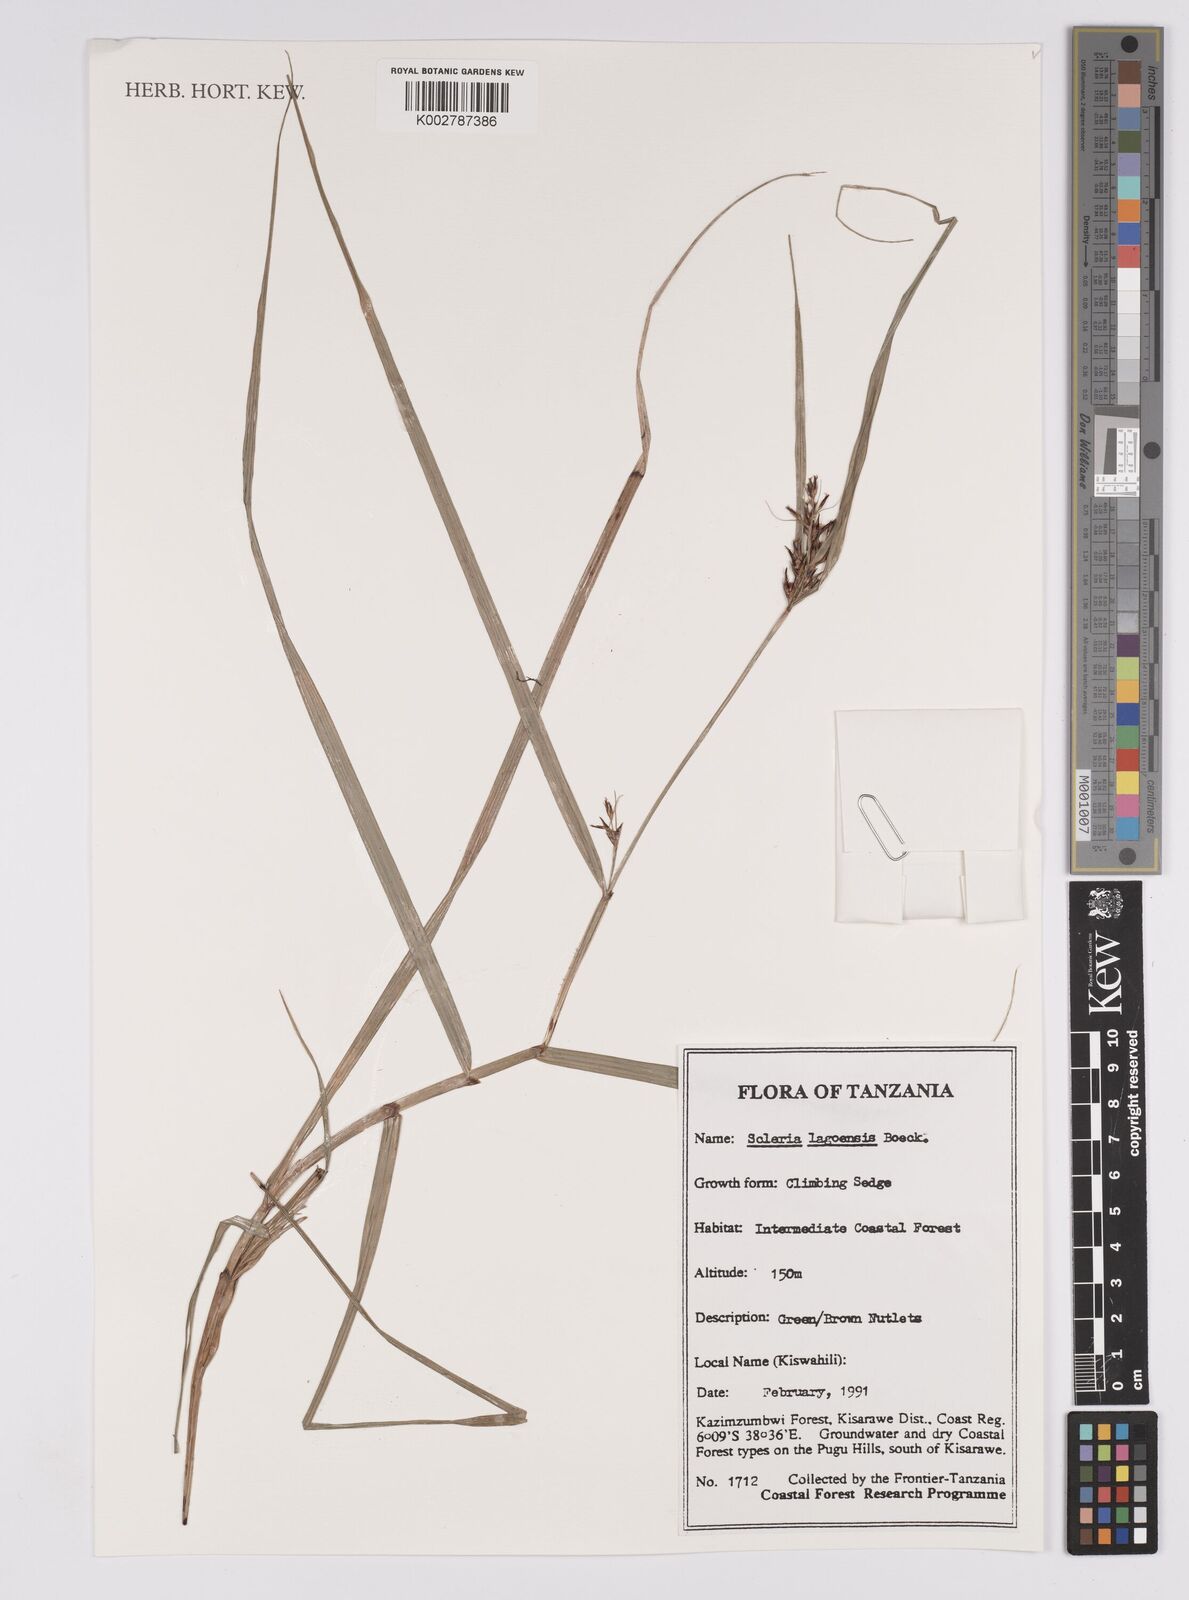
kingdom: Plantae
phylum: Tracheophyta
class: Liliopsida
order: Poales
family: Cyperaceae
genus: Scleria
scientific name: Scleria lagoensis
